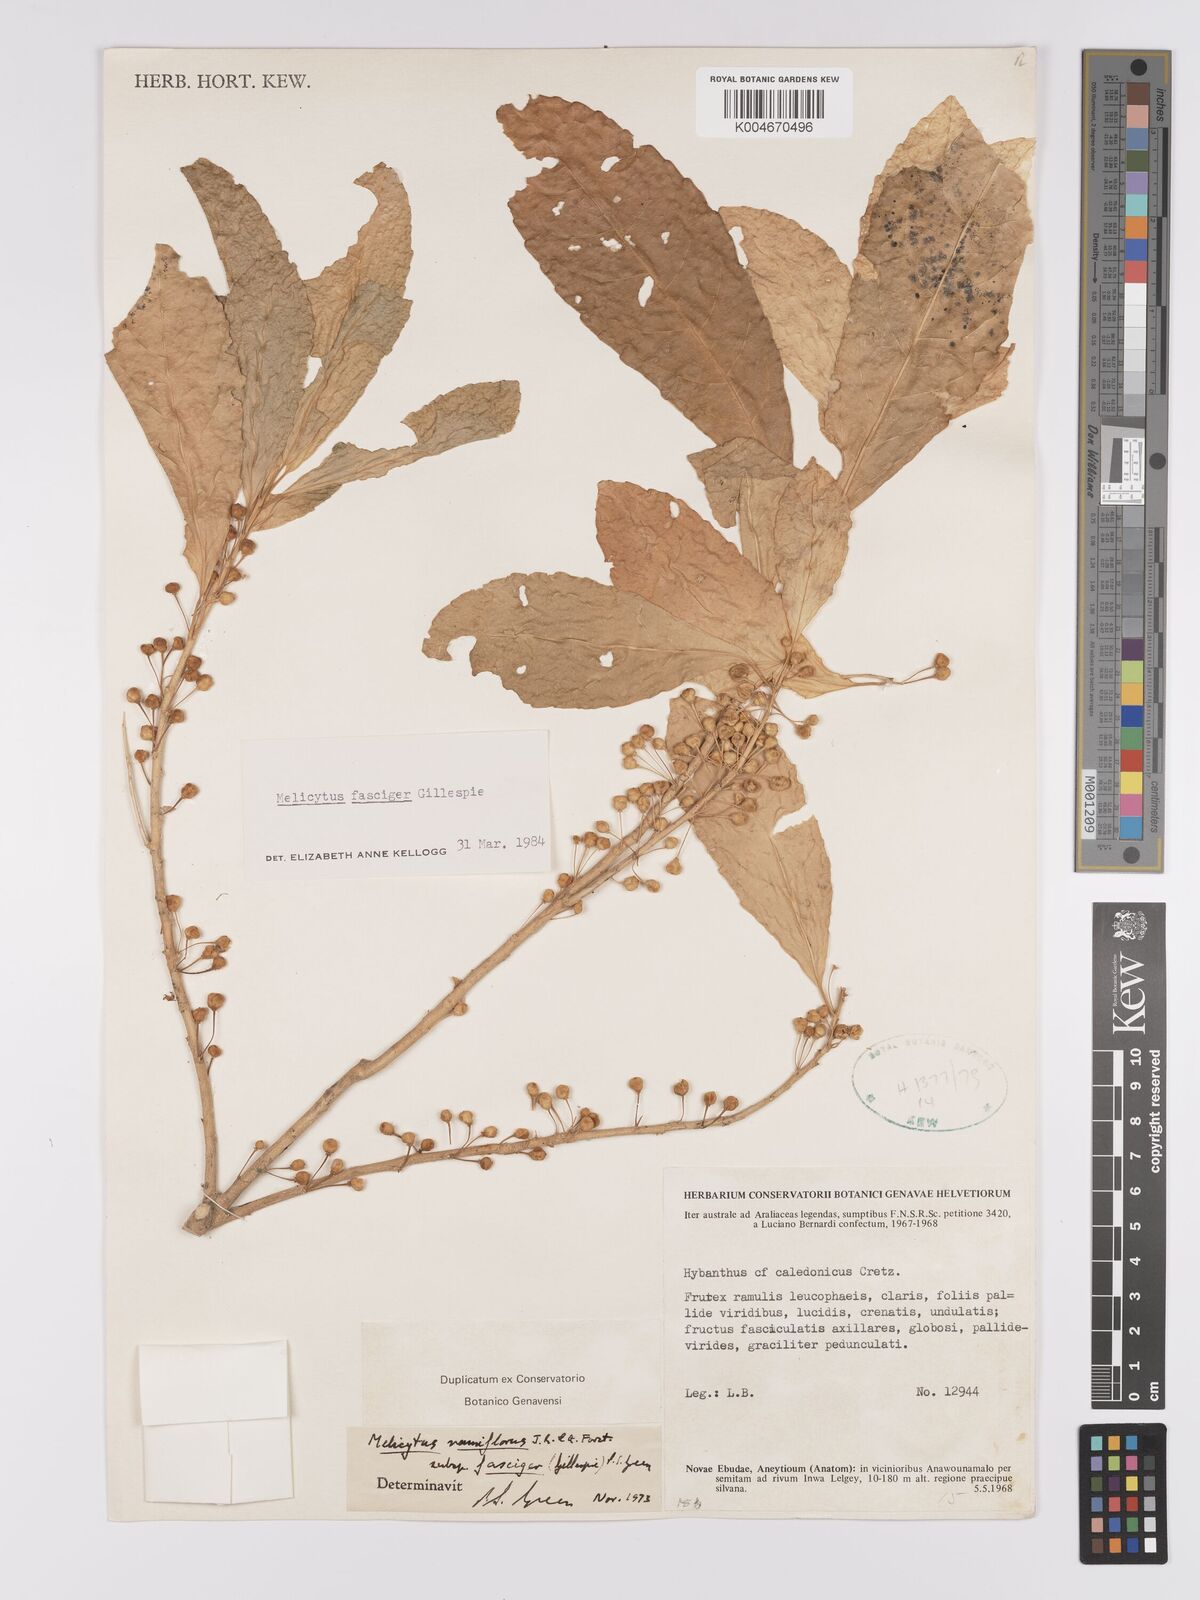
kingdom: Plantae
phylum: Tracheophyta
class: Magnoliopsida
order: Malpighiales
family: Violaceae
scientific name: Violaceae
